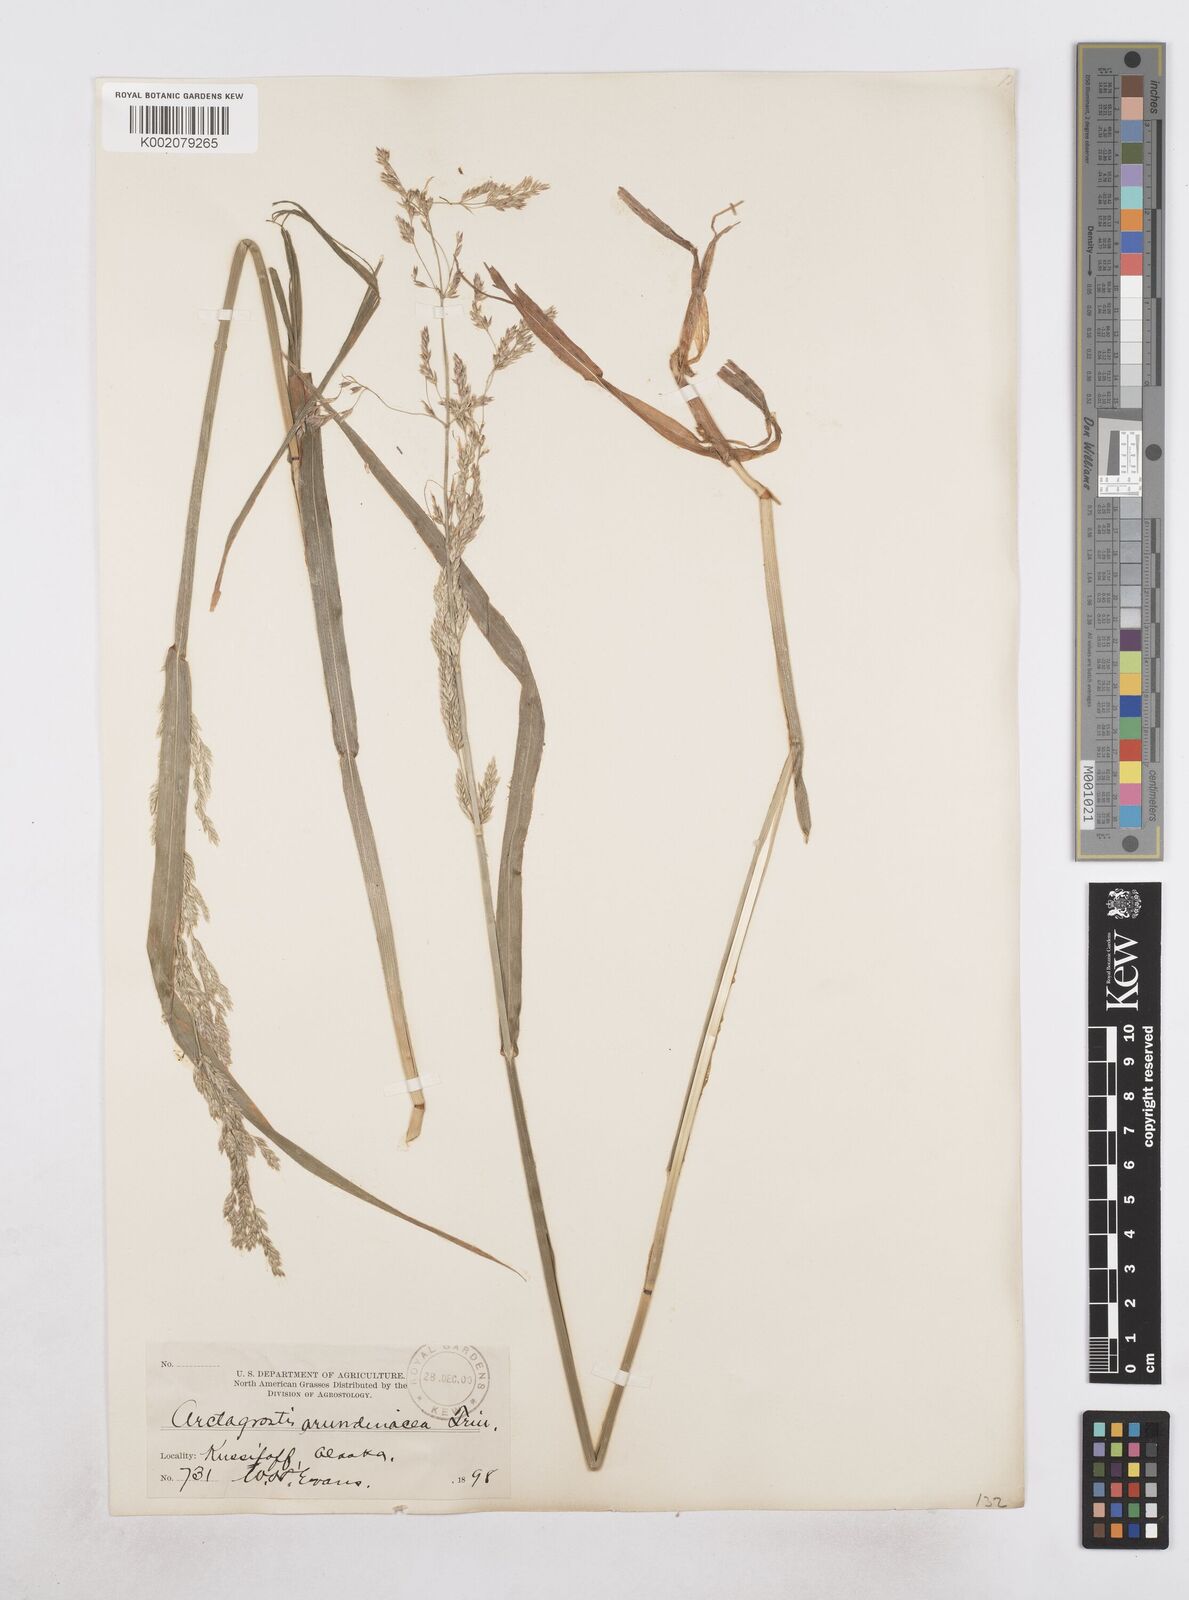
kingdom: Plantae
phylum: Tracheophyta
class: Liliopsida
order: Poales
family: Poaceae
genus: Arctagrostis
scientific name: Arctagrostis latifolia
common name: Arctic grass
